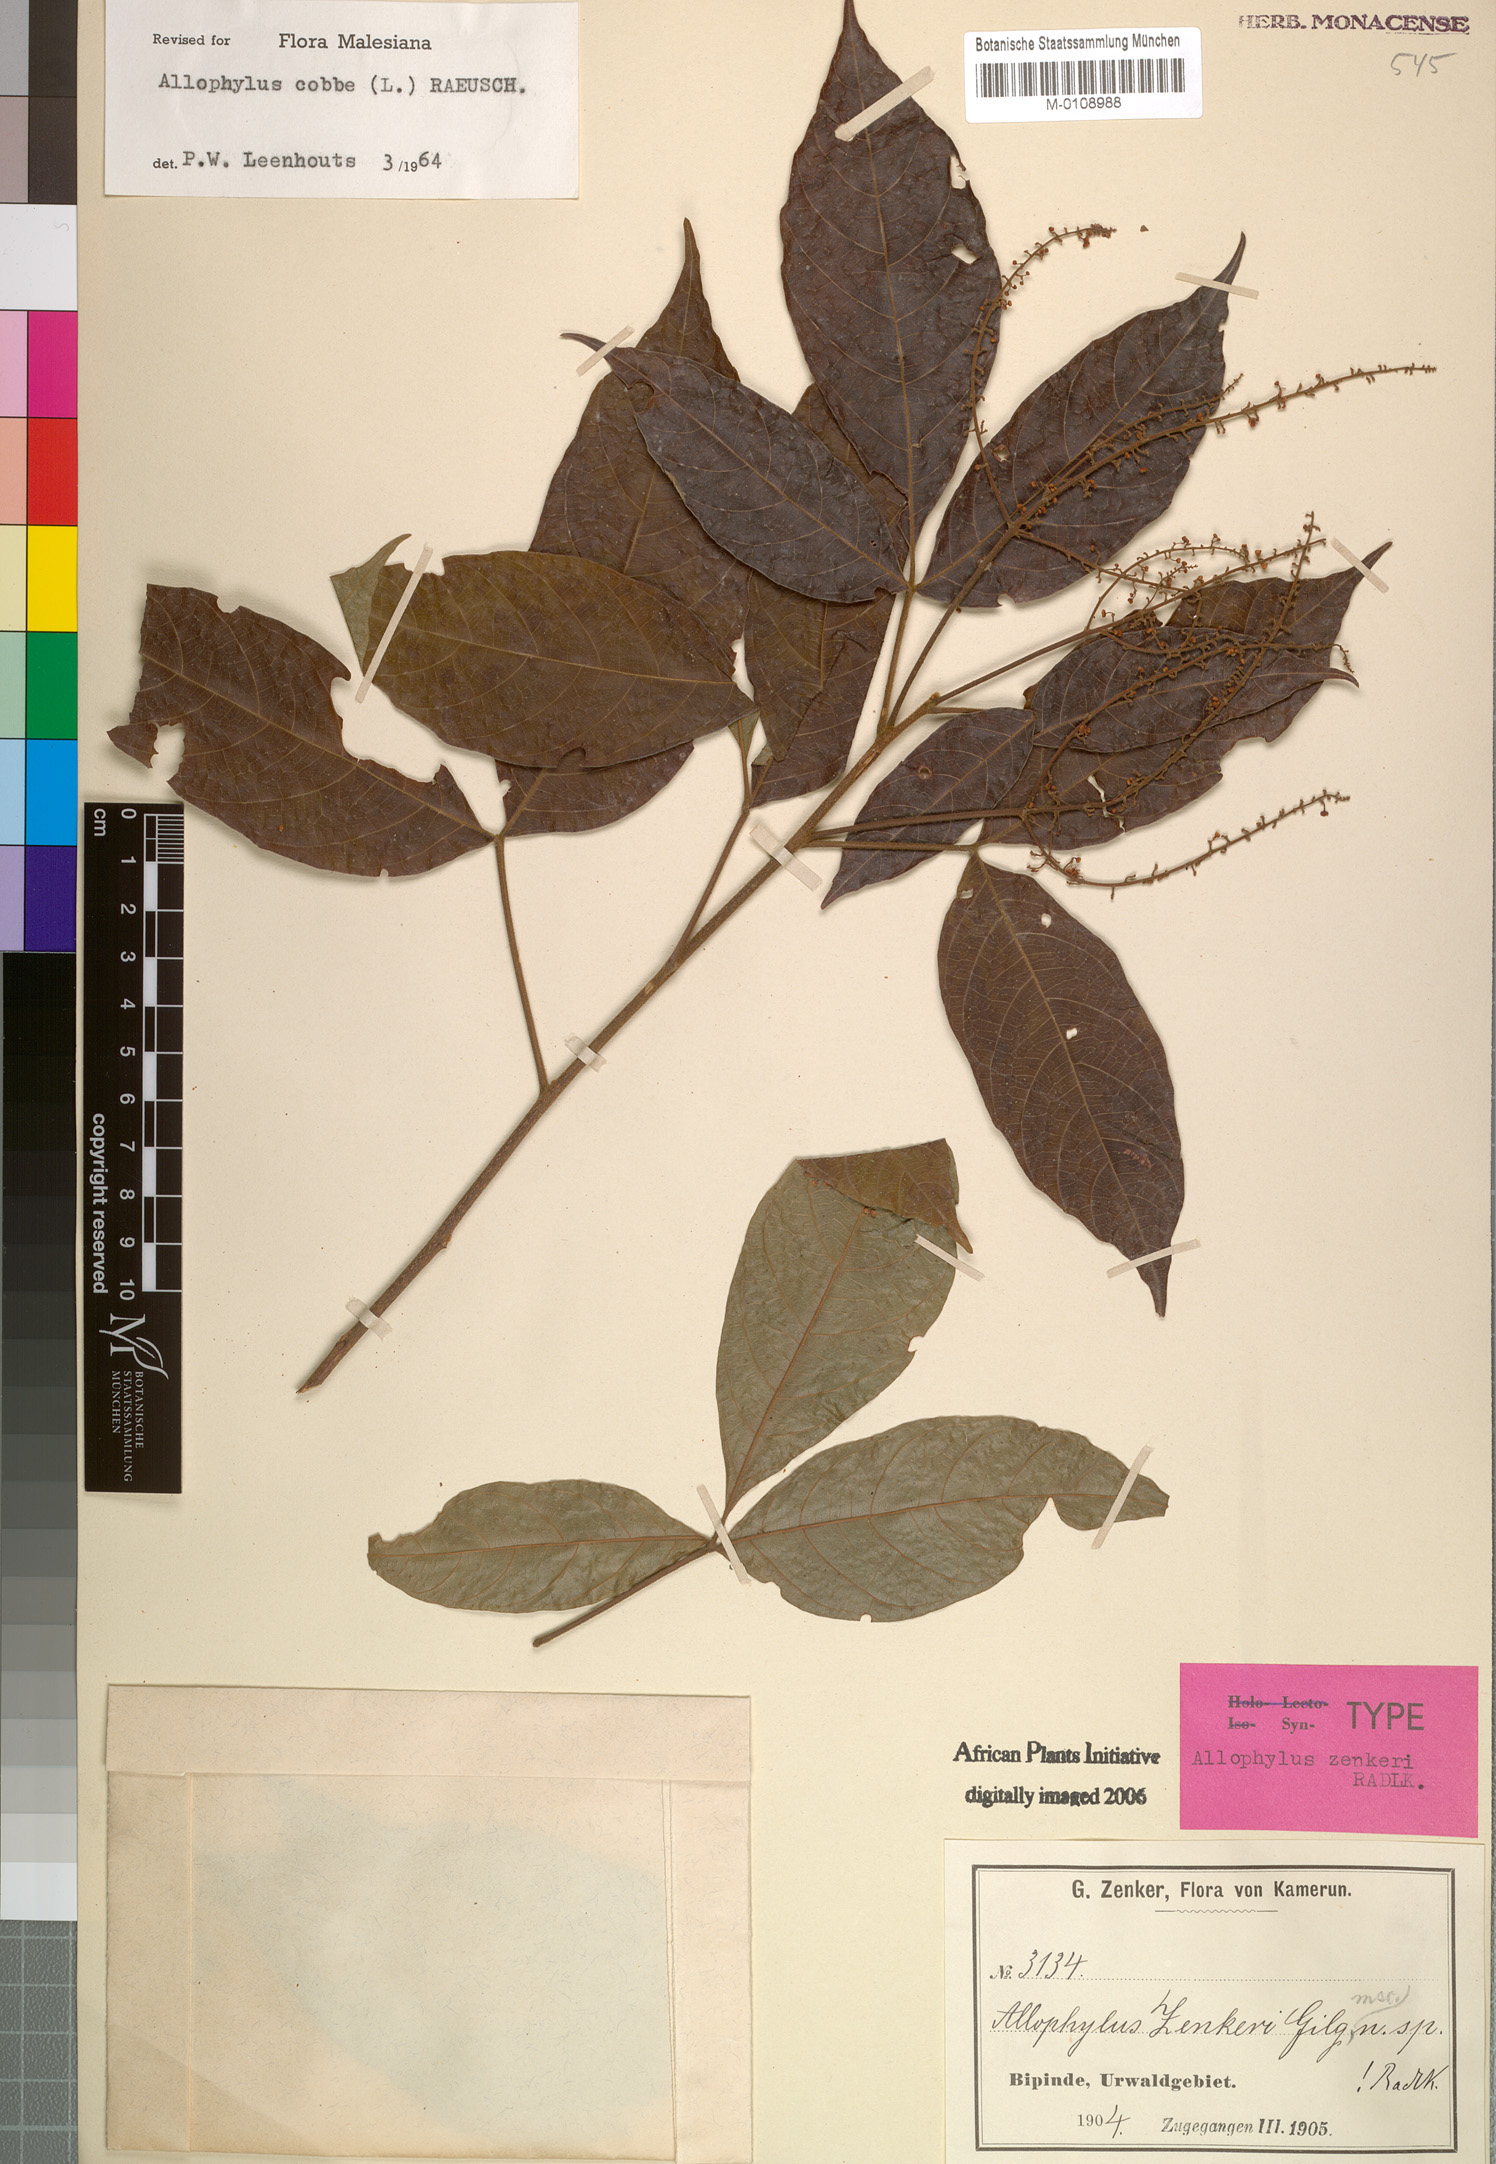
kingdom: Plantae
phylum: Tracheophyta
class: Magnoliopsida
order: Sapindales
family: Sapindaceae
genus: Allophylus
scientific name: Allophylus cobbe
